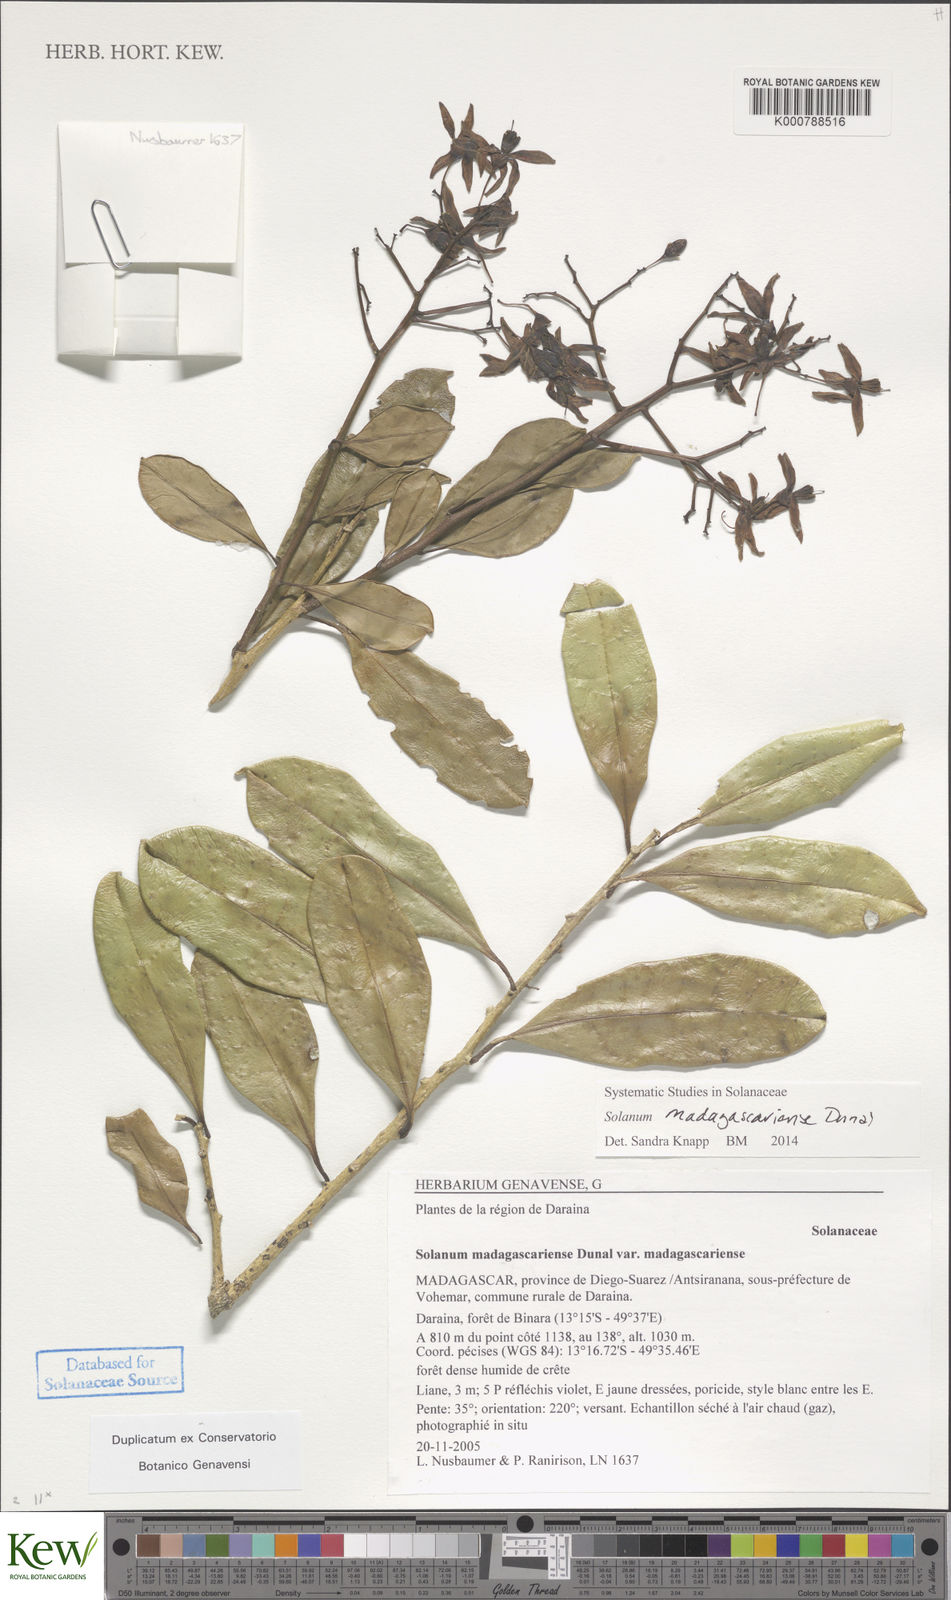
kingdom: Plantae
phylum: Tracheophyta
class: Magnoliopsida
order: Solanales
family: Solanaceae
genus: Solanum
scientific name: Solanum madagascariense
